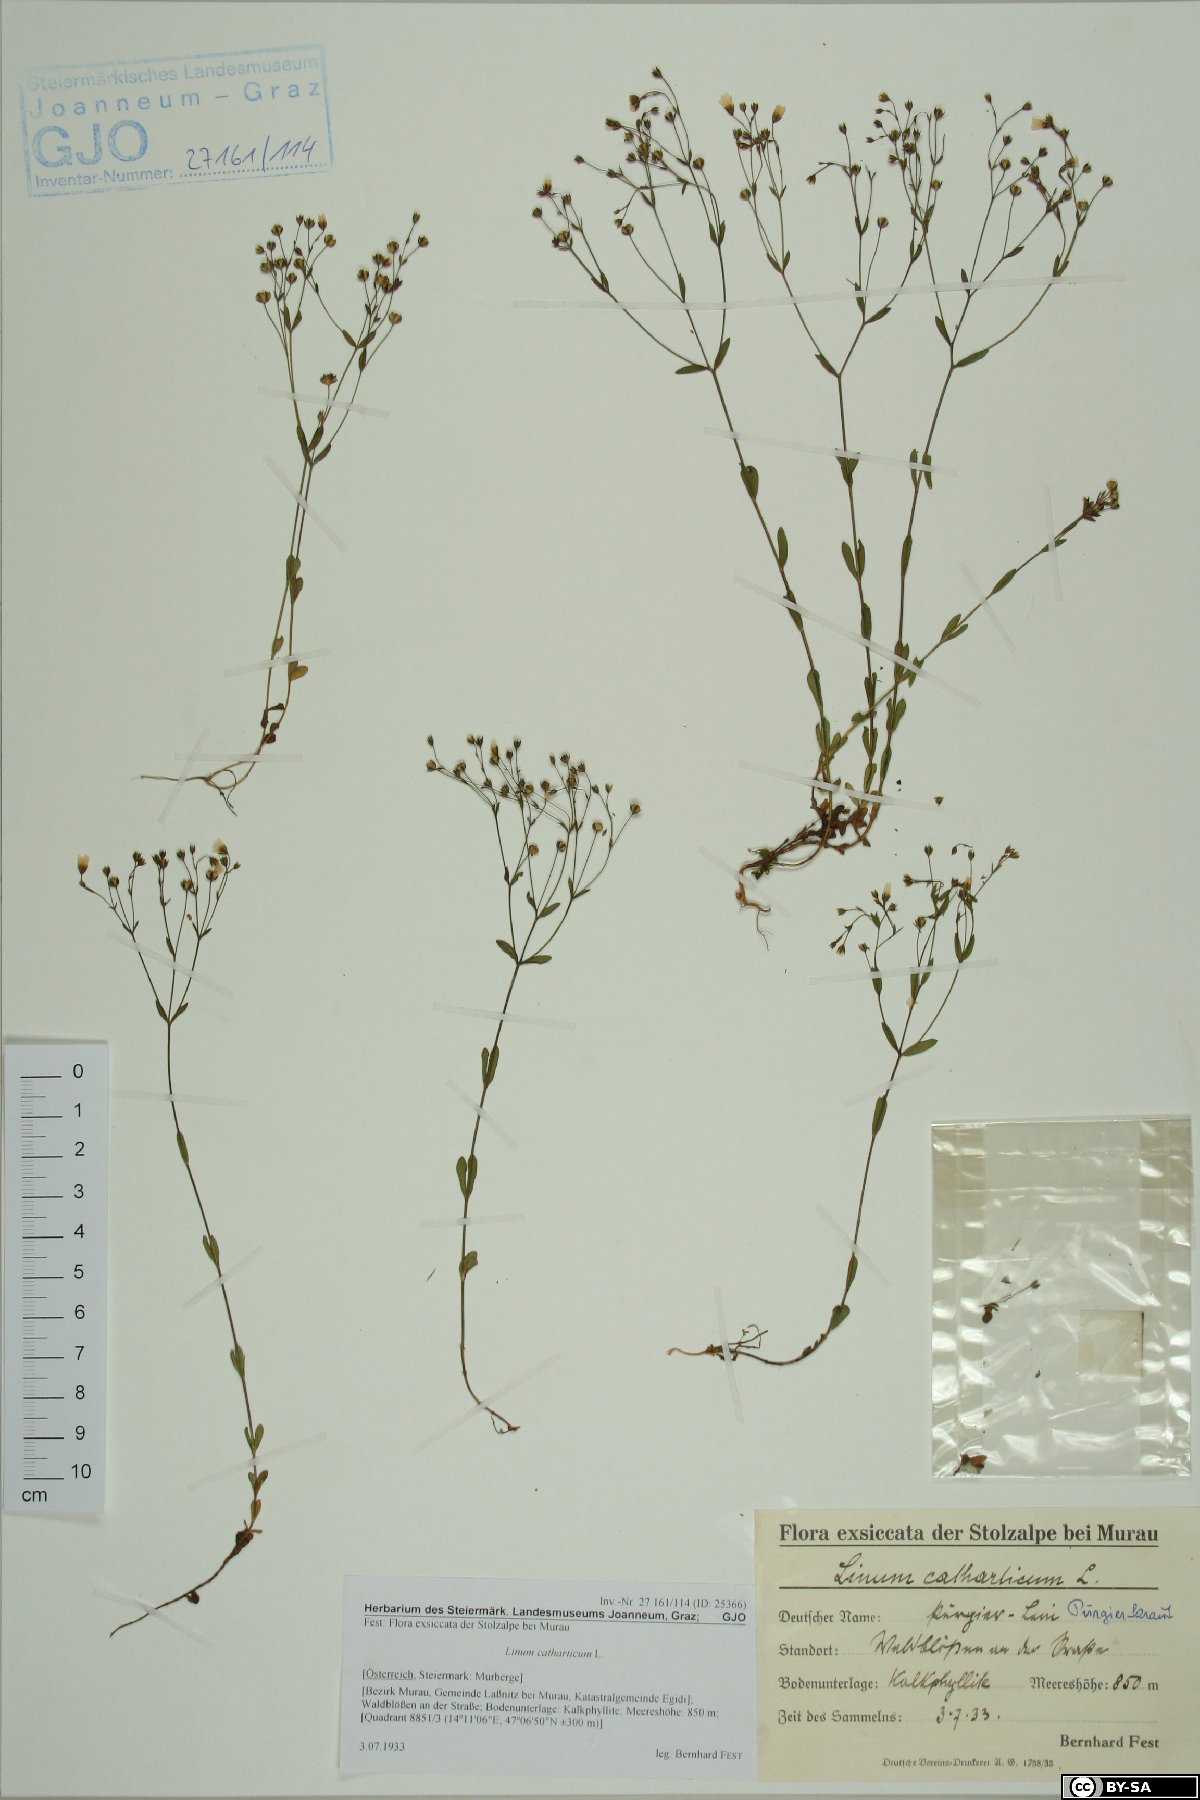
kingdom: Plantae
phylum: Tracheophyta
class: Magnoliopsida
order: Malpighiales
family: Linaceae
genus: Linum
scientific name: Linum catharticum
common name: Fairy flax
